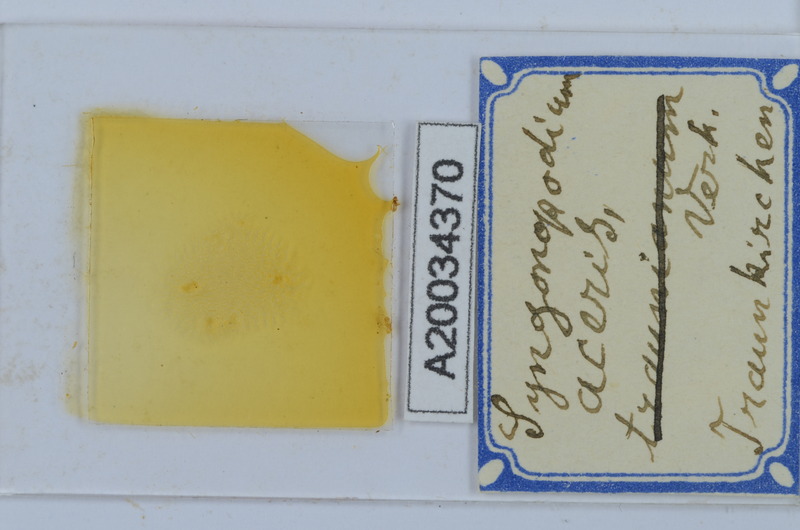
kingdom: Animalia
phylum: Arthropoda
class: Diplopoda
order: Chordeumatida
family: Attemsiidae
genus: Syngonopodium
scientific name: Syngonopodium aceris
